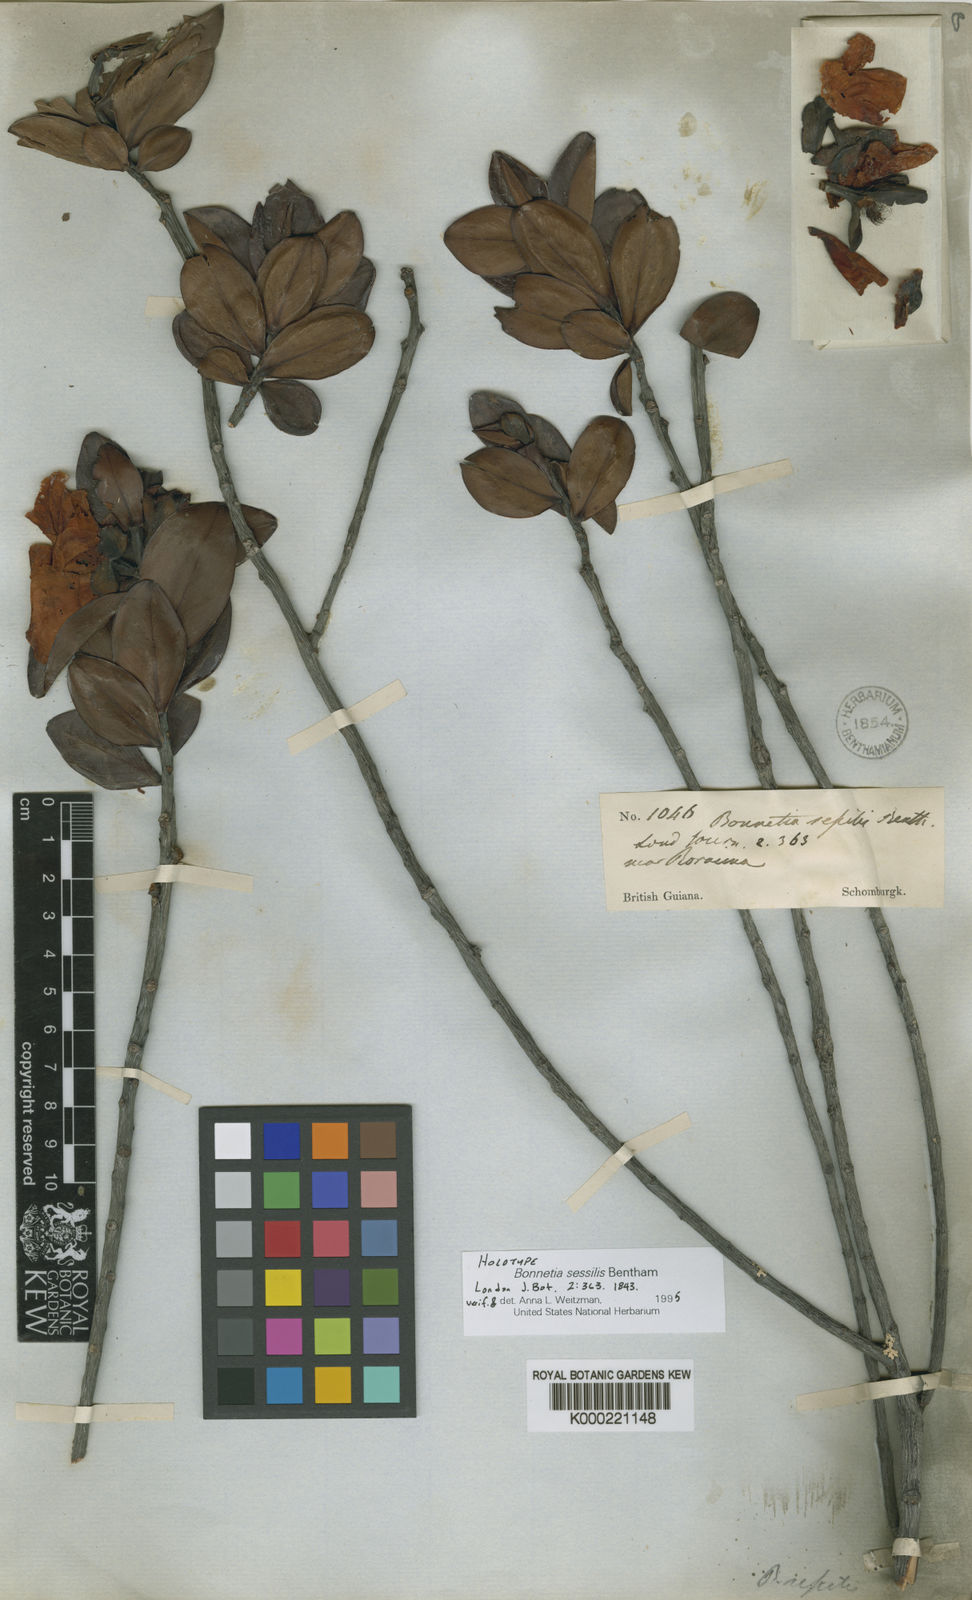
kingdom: Plantae
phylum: Tracheophyta
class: Magnoliopsida
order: Malpighiales
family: Bonnetiaceae
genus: Bonnetia
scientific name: Bonnetia sessilis
